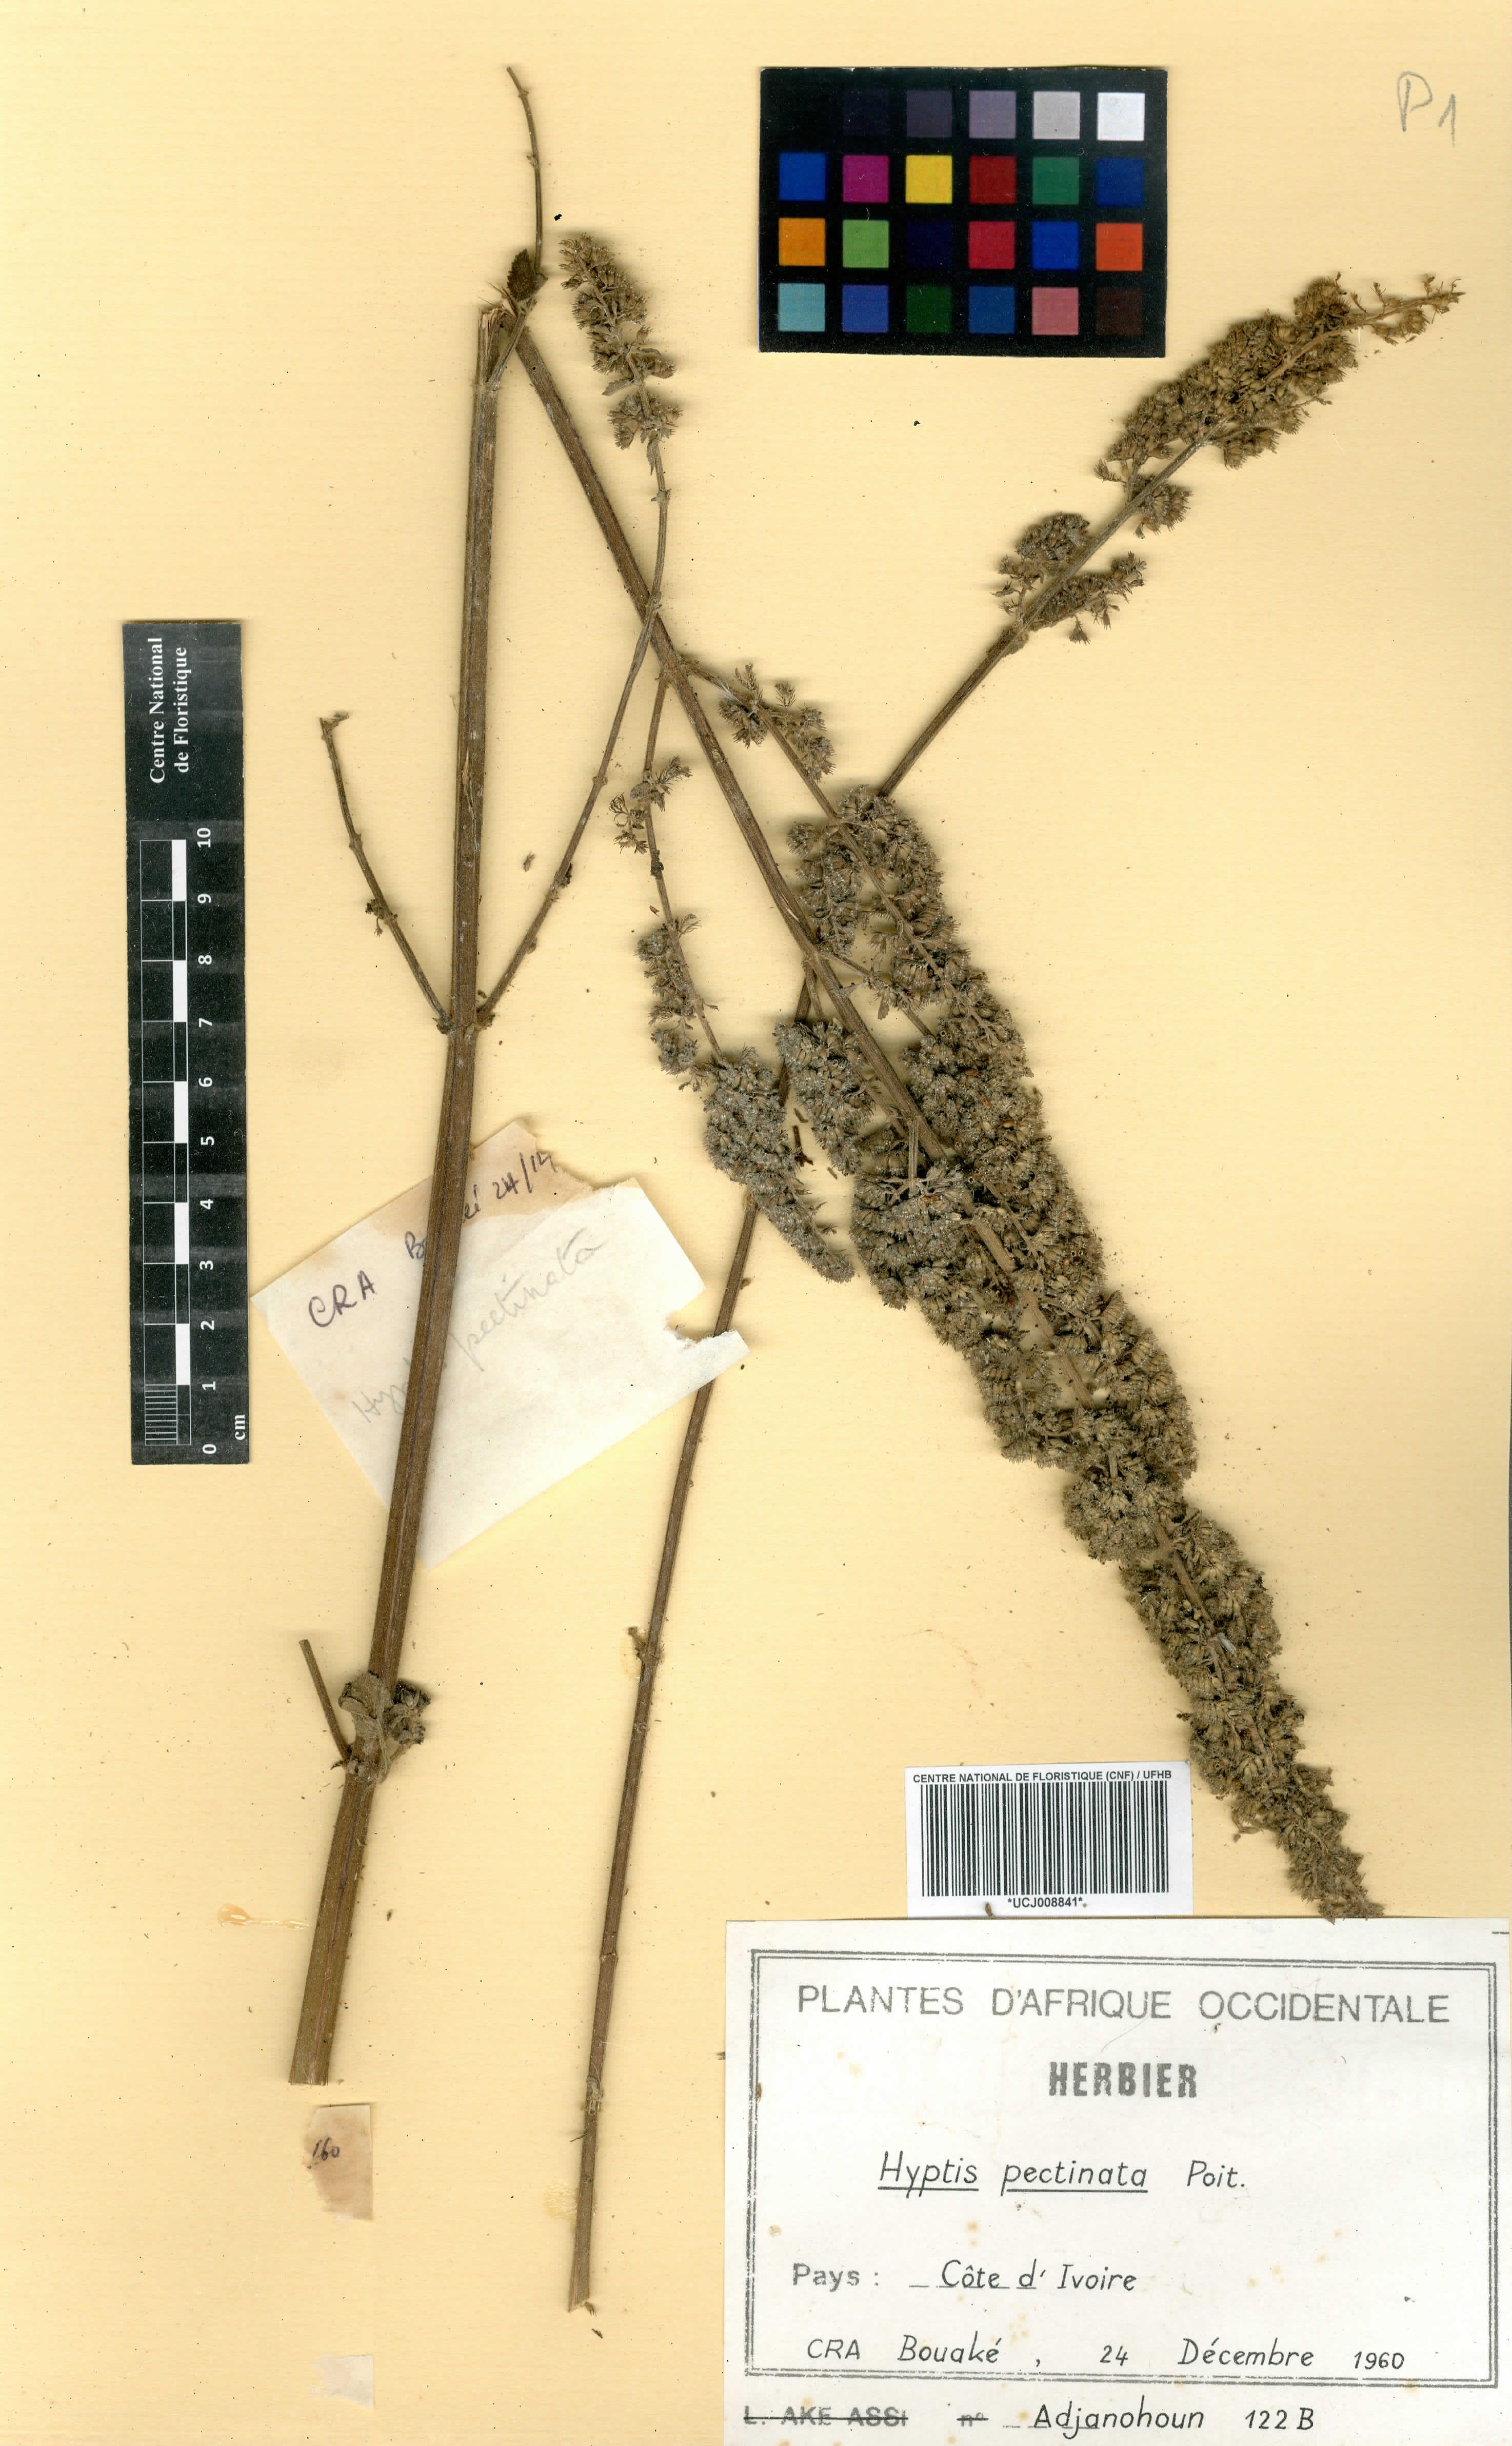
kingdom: Plantae
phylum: Tracheophyta
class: Magnoliopsida
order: Lamiales
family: Lamiaceae
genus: Mesosphaerum
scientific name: Mesosphaerum pectinatum
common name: Comb hyptis
